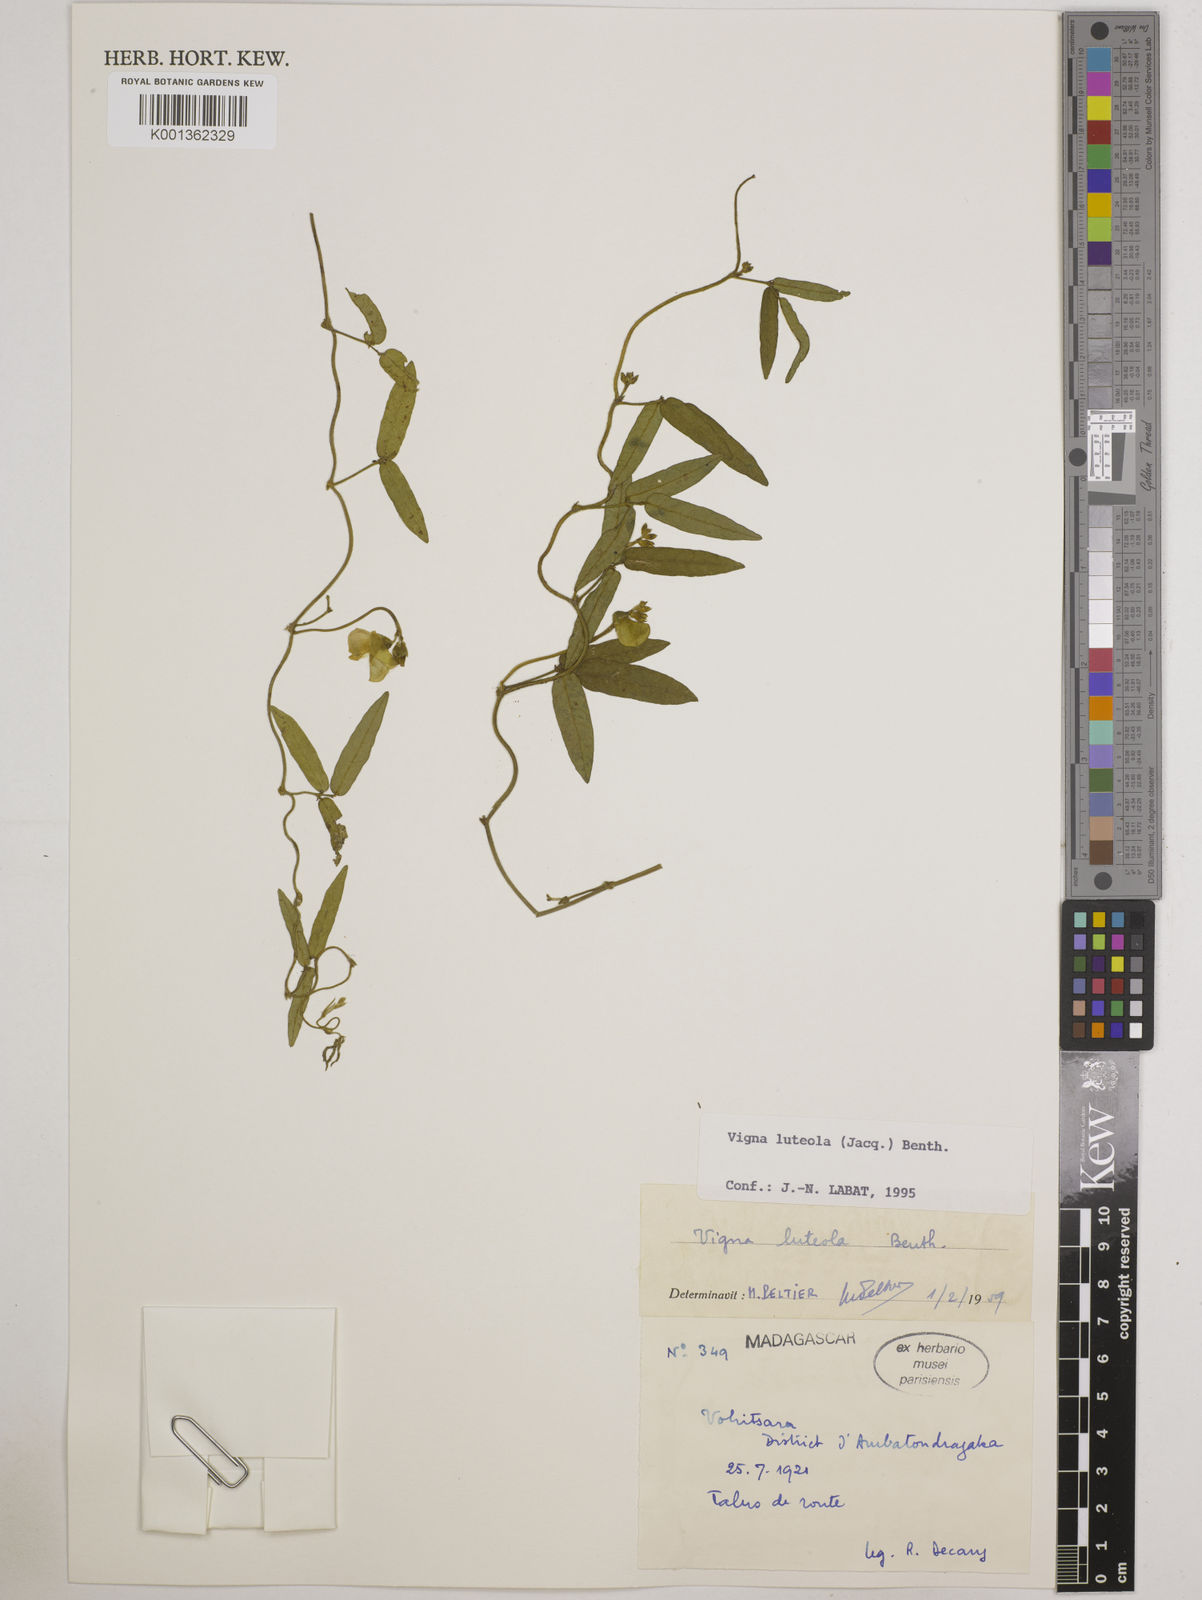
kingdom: Plantae
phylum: Tracheophyta
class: Magnoliopsida
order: Fabales
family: Fabaceae
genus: Vigna
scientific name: Vigna luteola
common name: Hairypod cowpea
